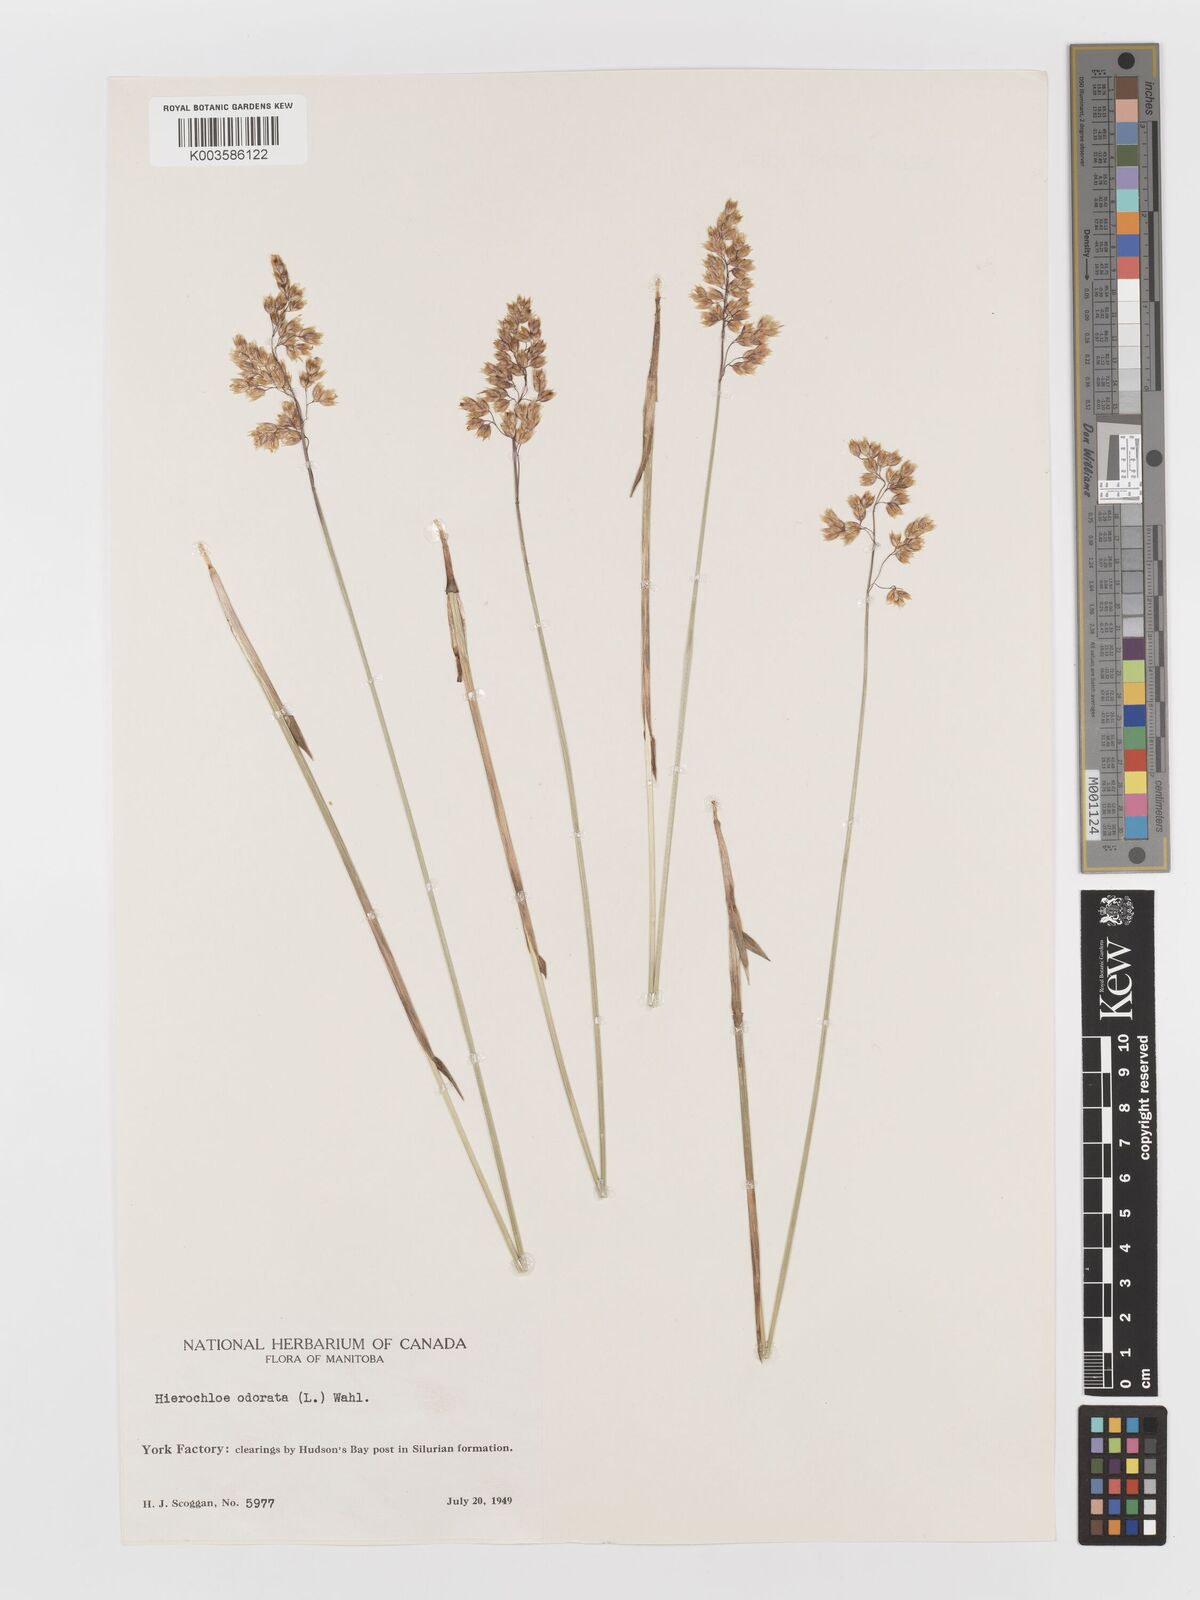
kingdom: Plantae
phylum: Tracheophyta
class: Liliopsida
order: Poales
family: Poaceae
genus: Anthoxanthum
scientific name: Anthoxanthum nitens
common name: Holy grass
